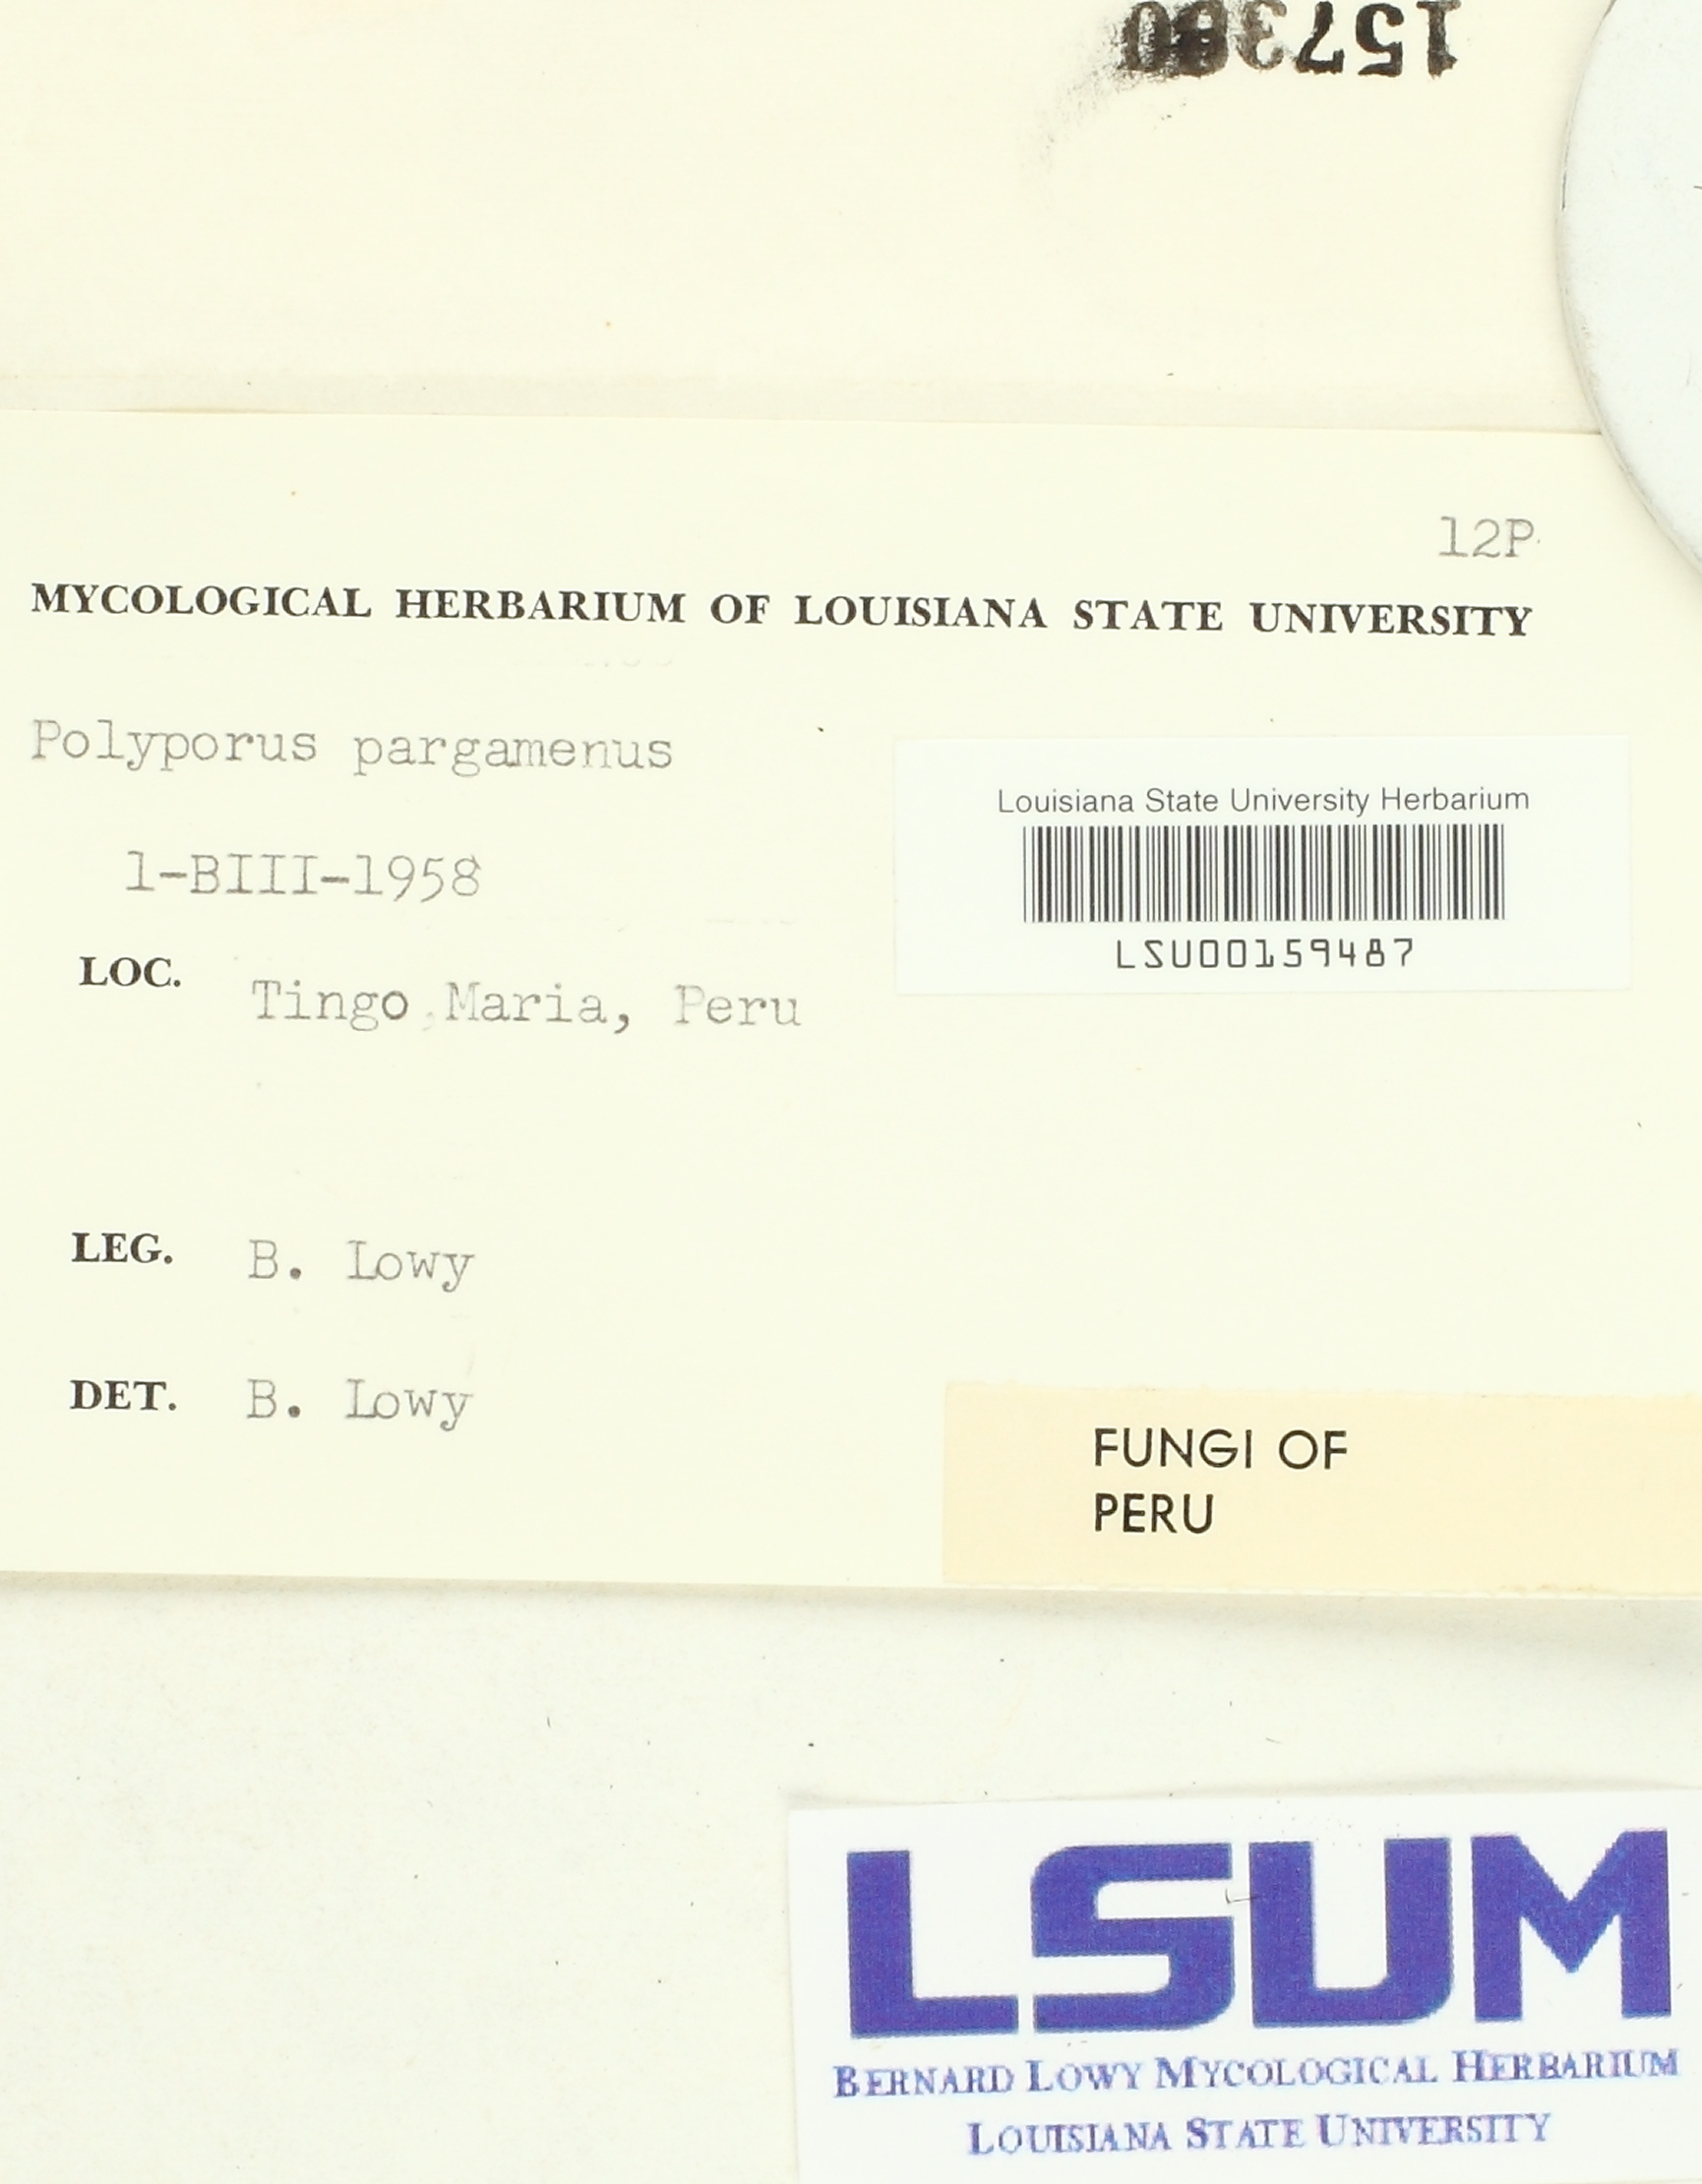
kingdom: Fungi
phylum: Basidiomycota
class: Agaricomycetes
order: Hymenochaetales
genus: Trichaptum
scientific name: Trichaptum biforme
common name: Violet-toothed polypore
